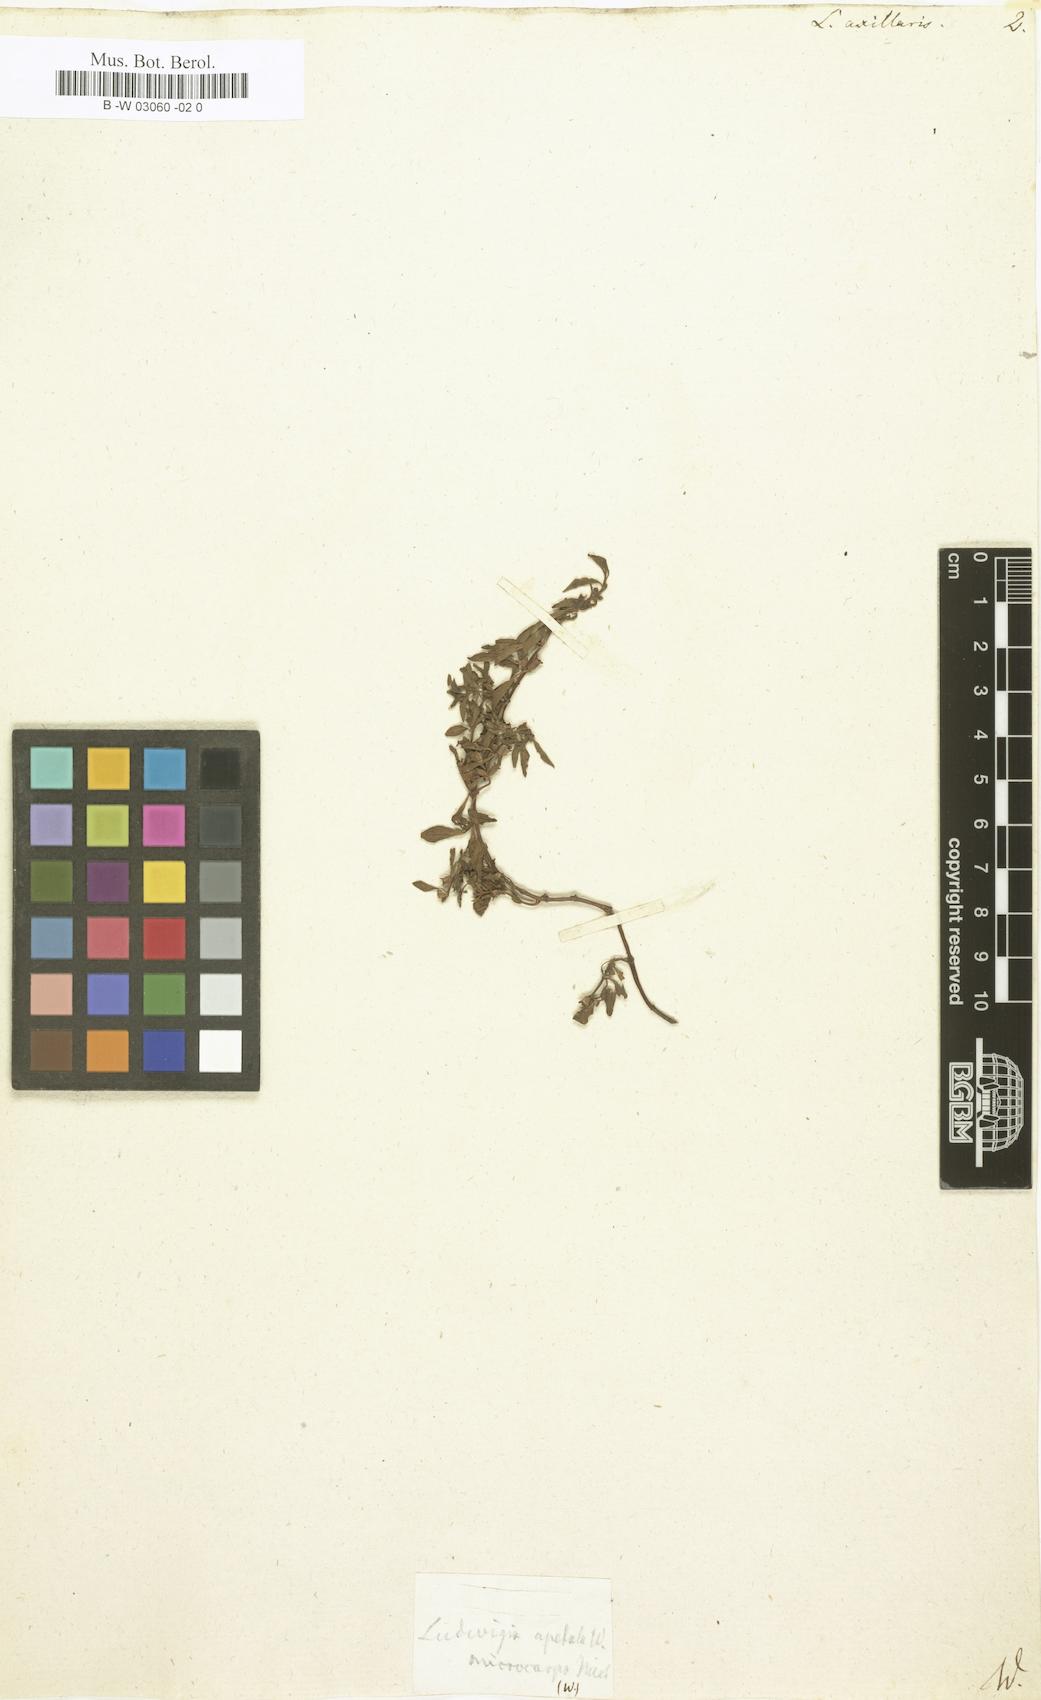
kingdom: Plantae
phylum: Tracheophyta
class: Magnoliopsida
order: Myrtales
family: Onagraceae
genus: Ludwigia
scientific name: Ludwigia
